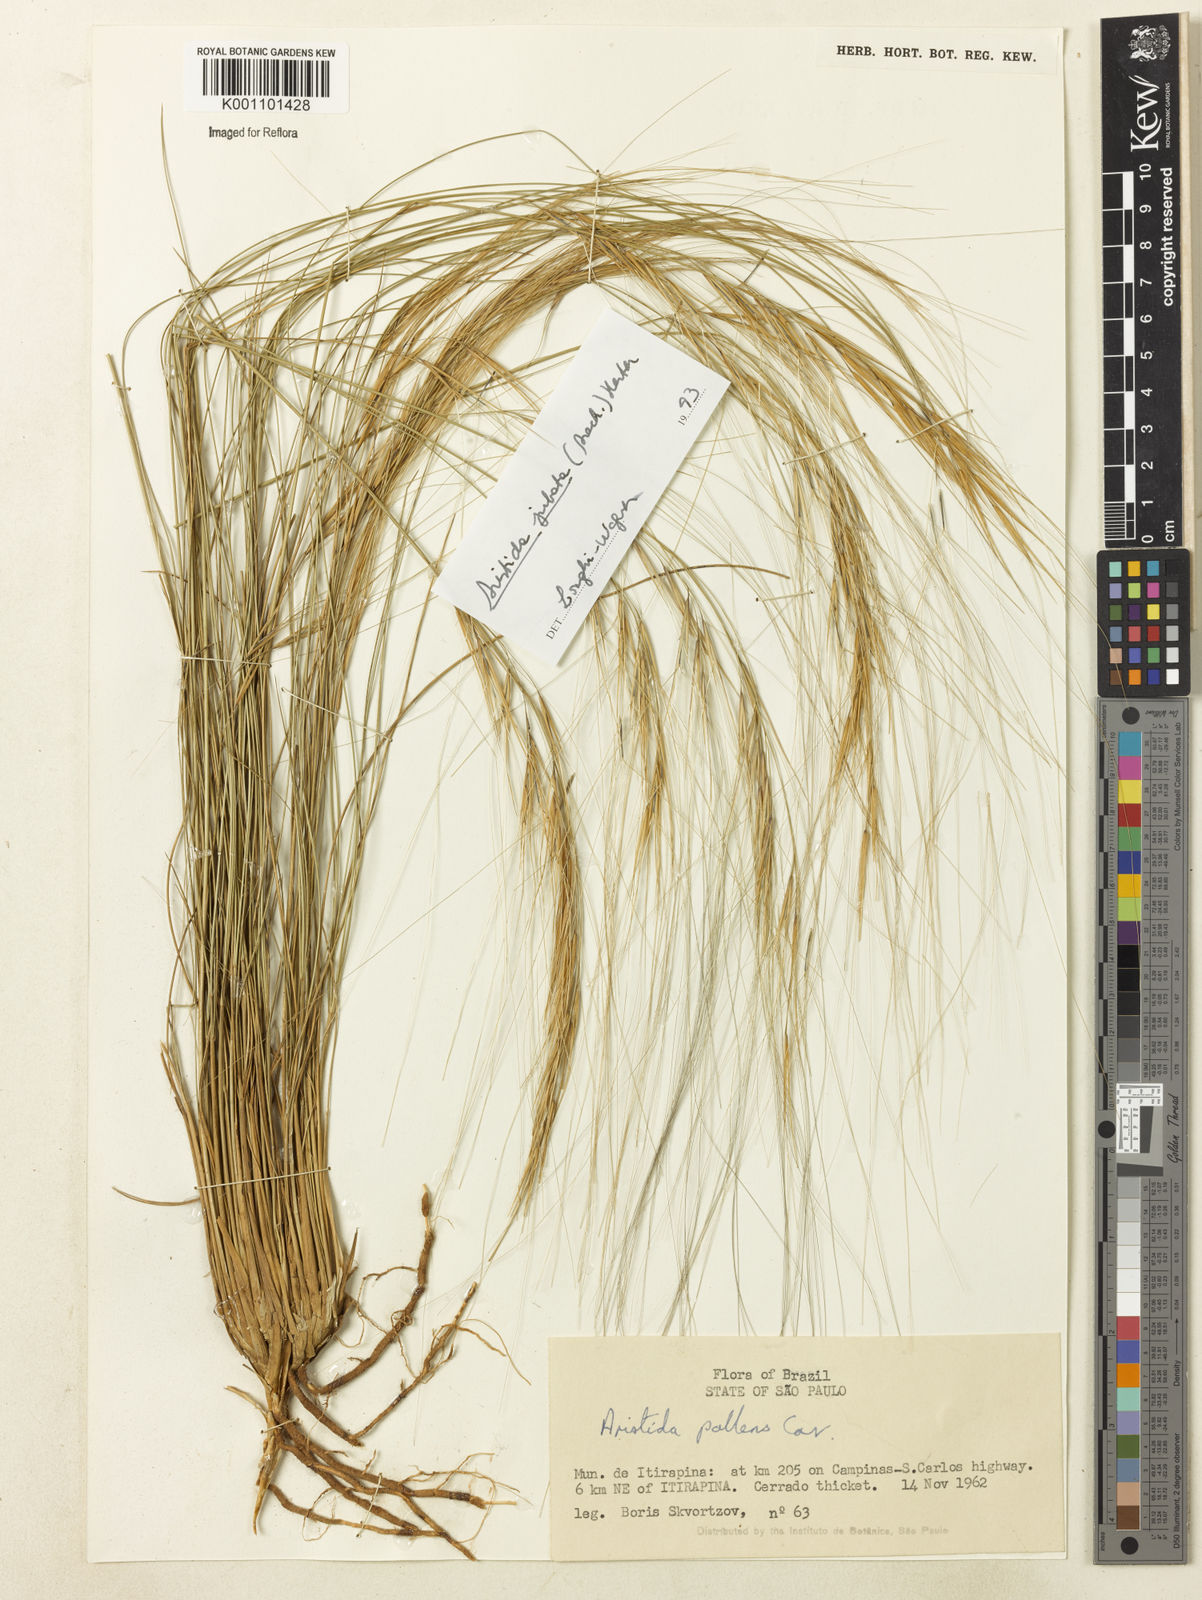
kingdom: Plantae
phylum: Tracheophyta
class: Liliopsida
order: Poales
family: Poaceae
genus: Aristida
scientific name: Aristida jubata
